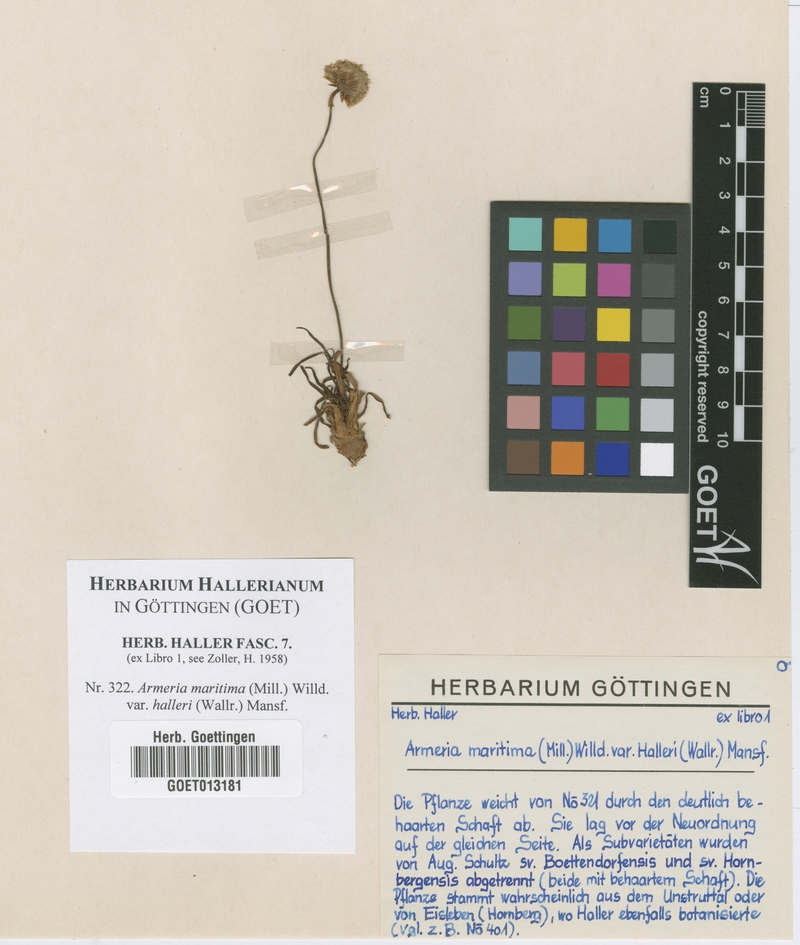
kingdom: Plantae
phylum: Tracheophyta
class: Magnoliopsida
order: Caryophyllales
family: Plumbaginaceae
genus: Armeria
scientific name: Armeria maritima
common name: Thrift
